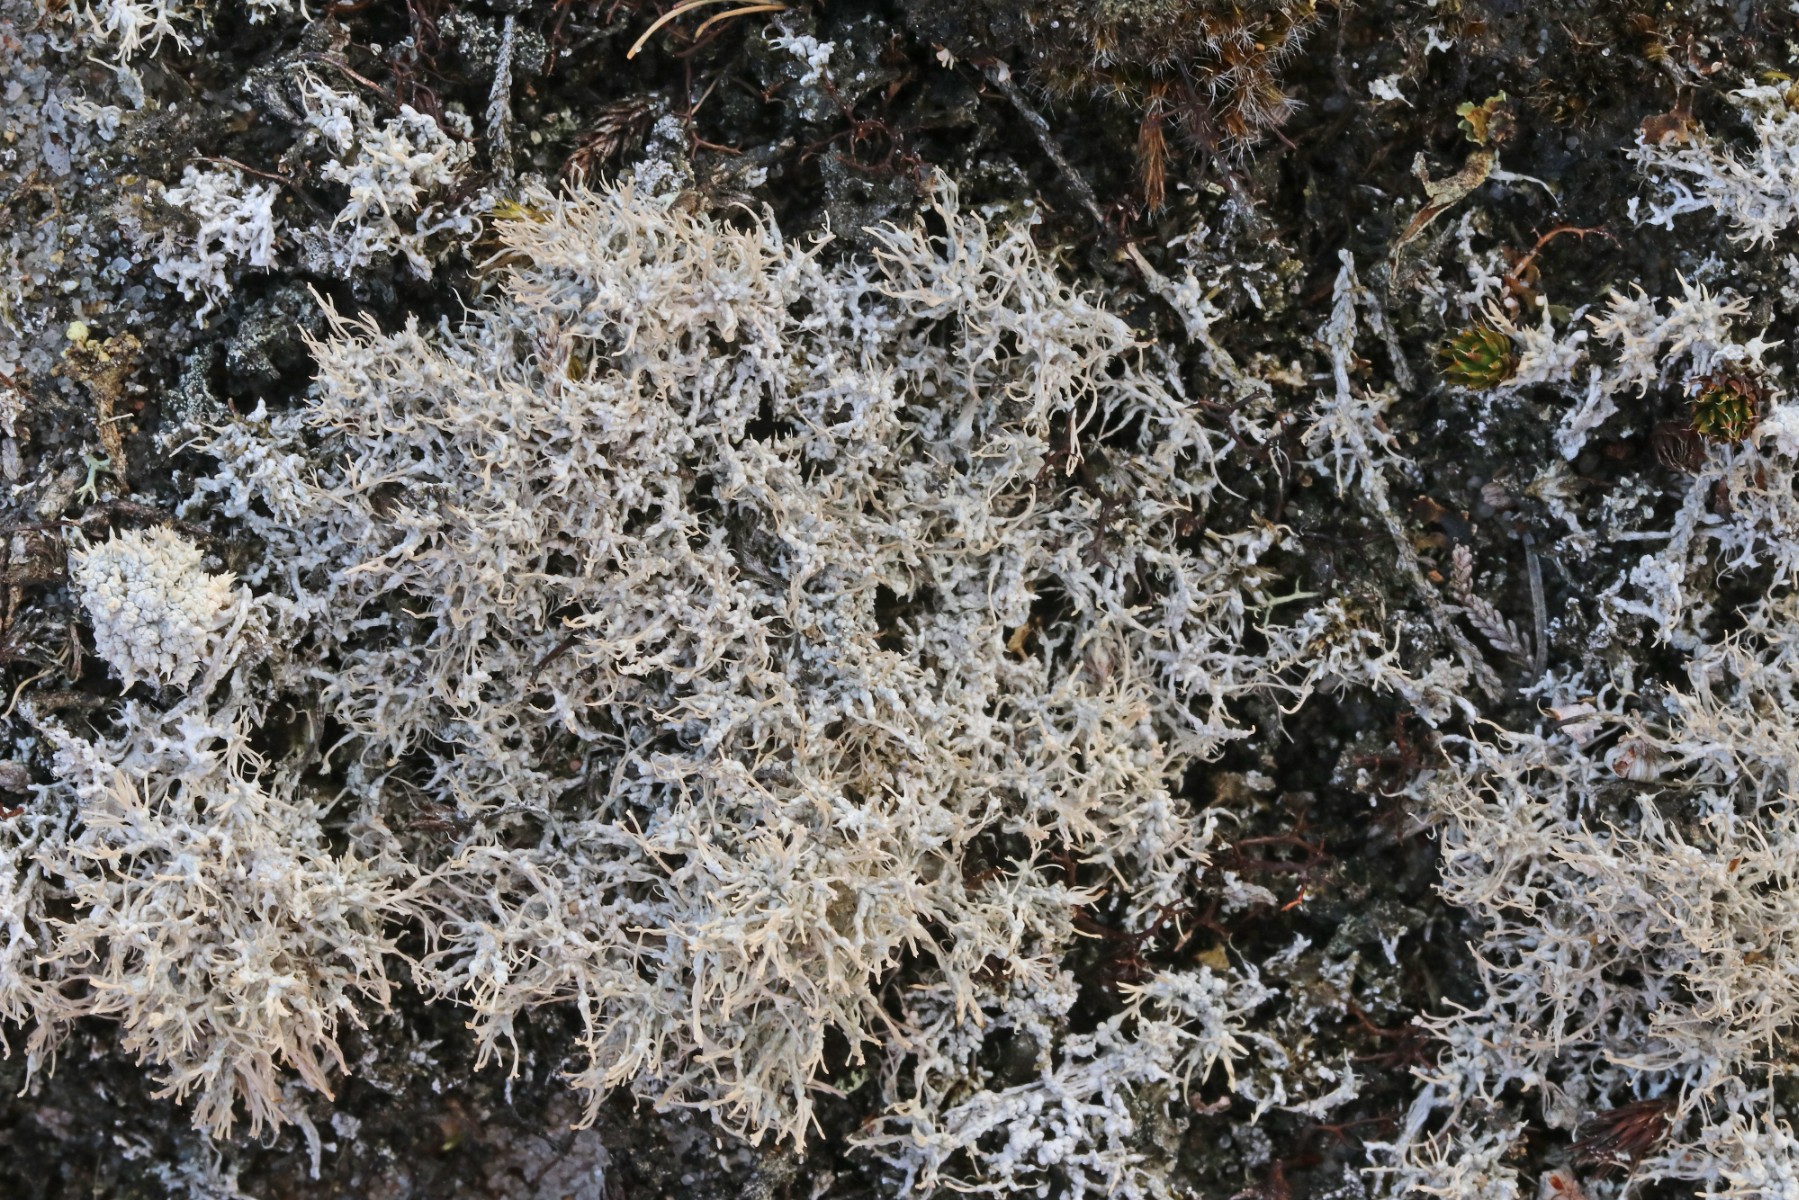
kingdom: Fungi
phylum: Ascomycota
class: Lecanoromycetes
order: Pertusariales
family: Ochrolechiaceae
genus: Ochrolechia
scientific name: Ochrolechia frigida
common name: fjeld-blegskivelav
